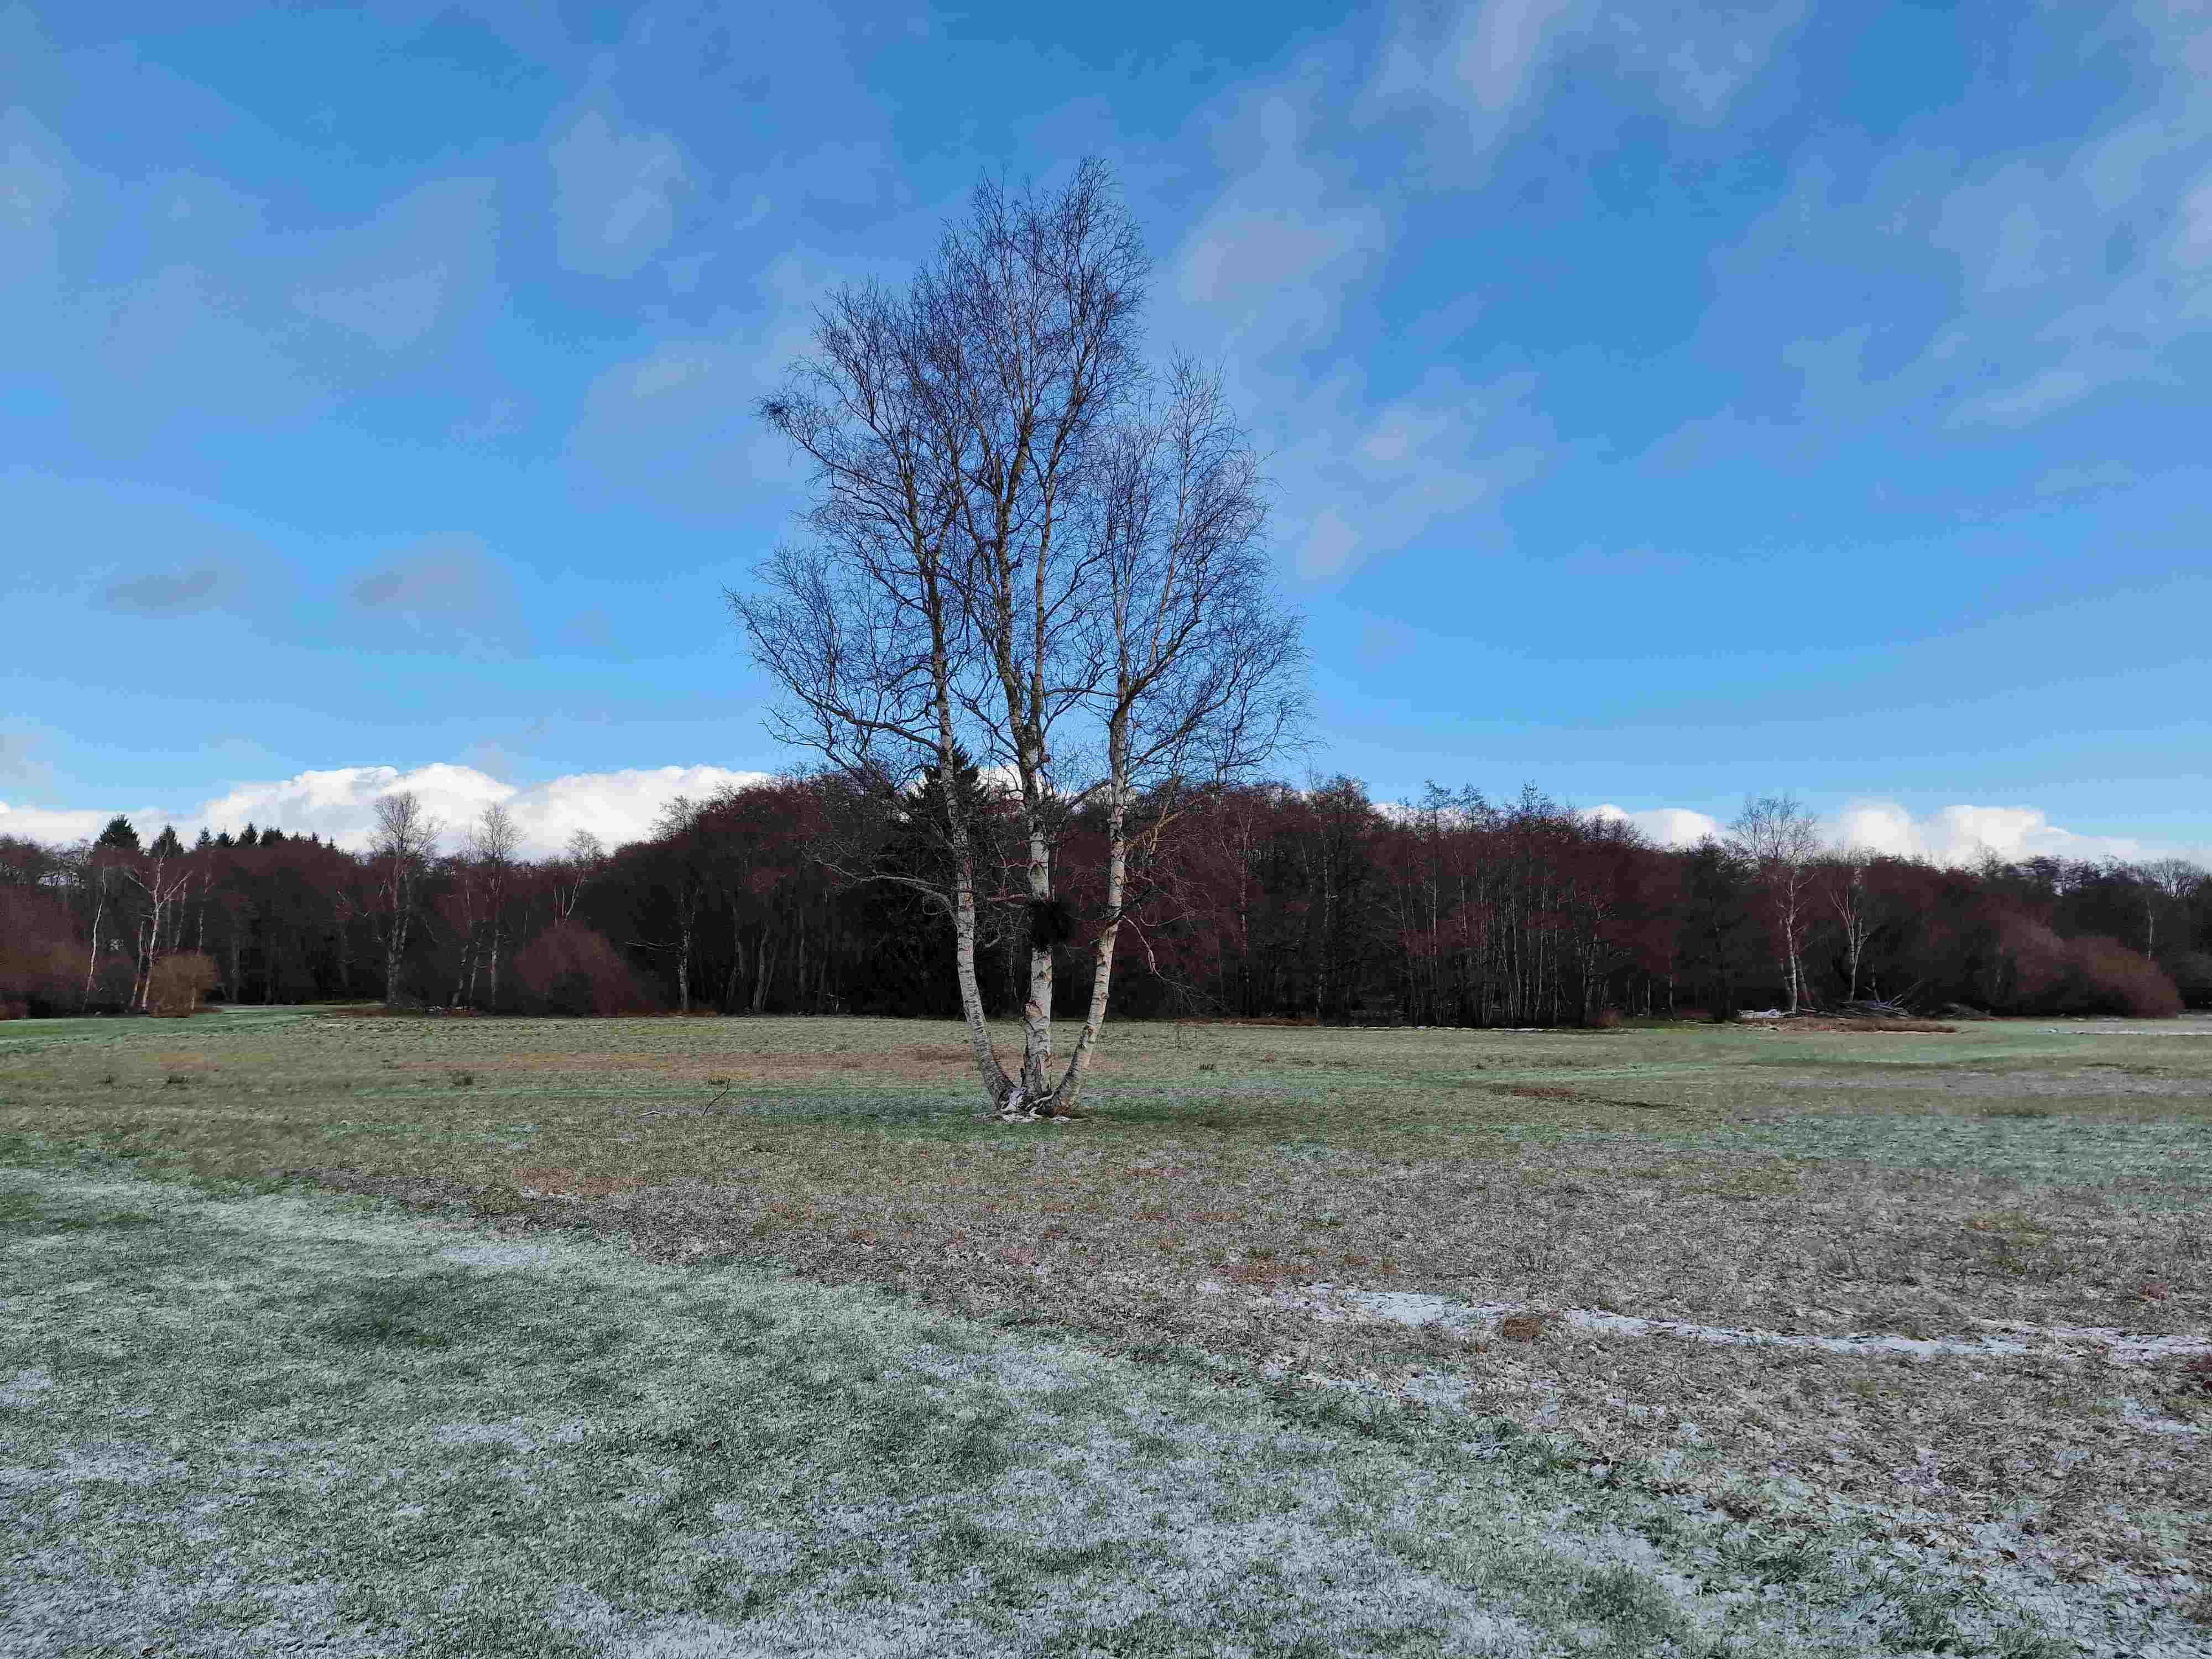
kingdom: Fungi
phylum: Ascomycota
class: Taphrinomycetes
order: Taphrinales
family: Taphrinaceae
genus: Taphrina
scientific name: Taphrina betulina
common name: hekse-sækdug
